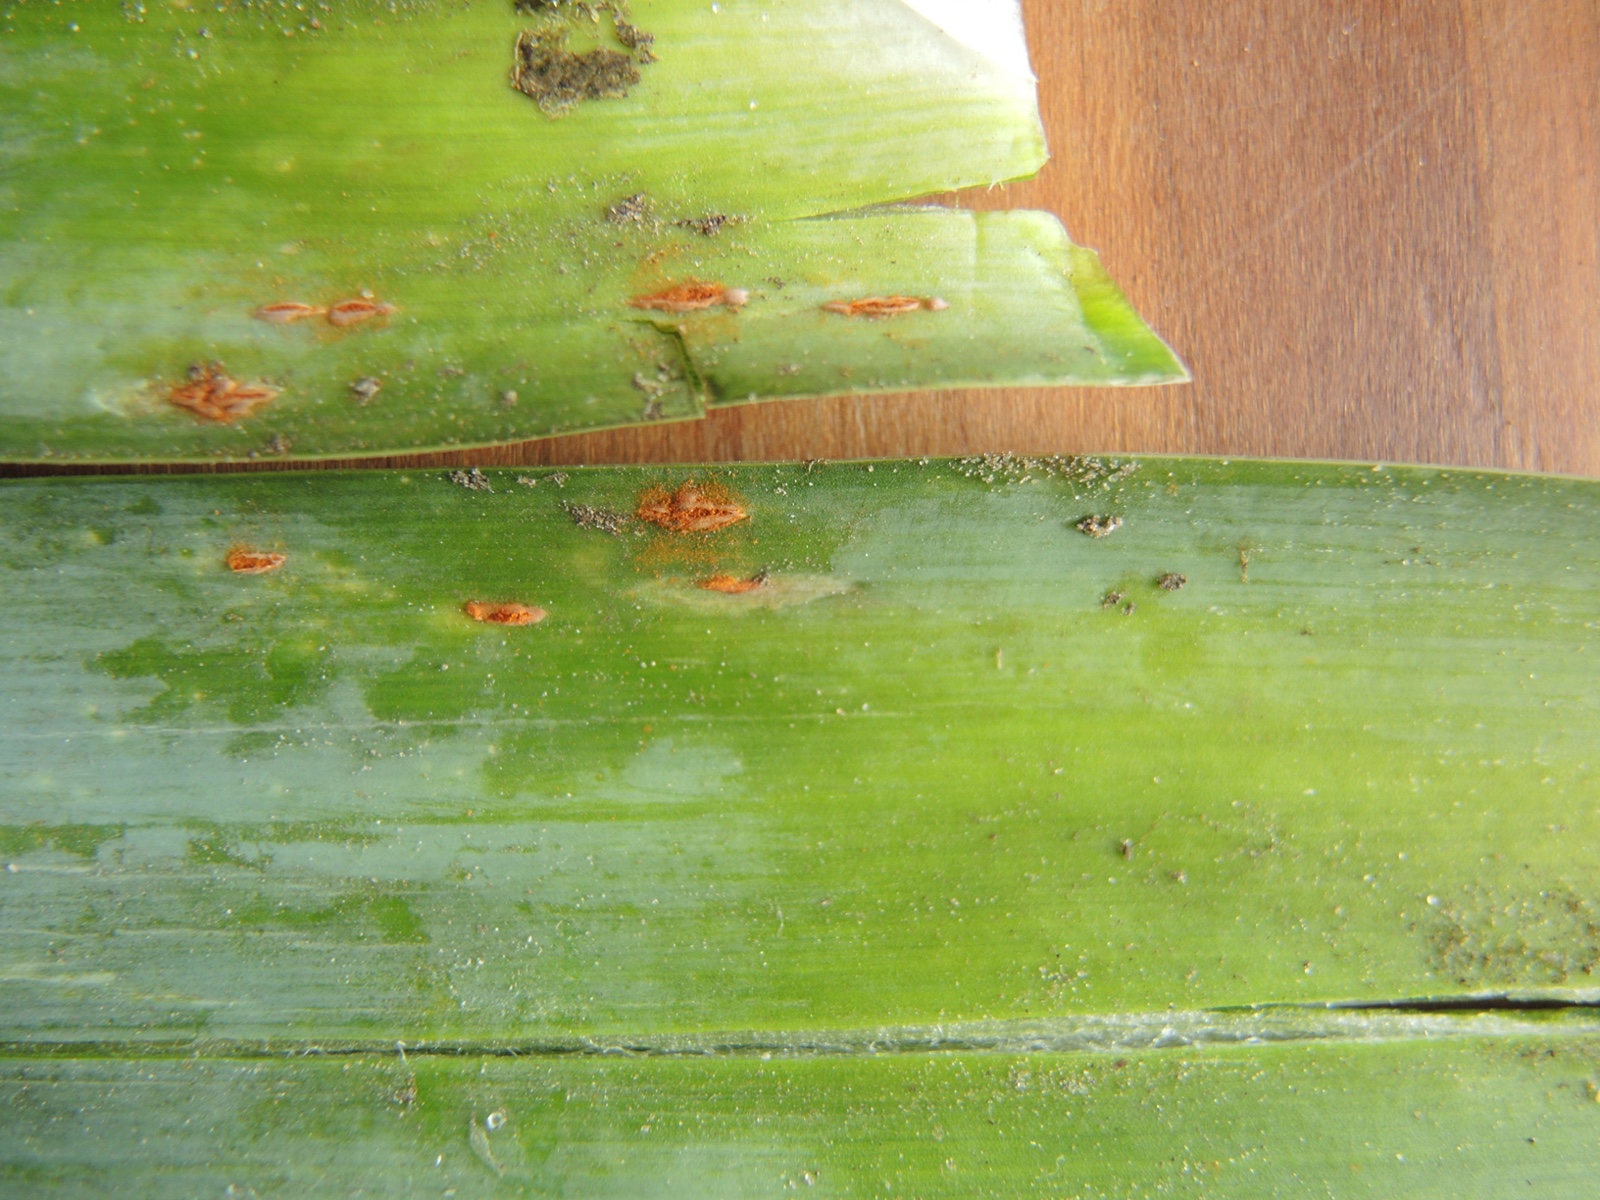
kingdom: Fungi
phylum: Basidiomycota
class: Pucciniomycetes
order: Pucciniales
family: Pucciniaceae
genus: Puccinia
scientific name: Puccinia porri
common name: Allium rust
